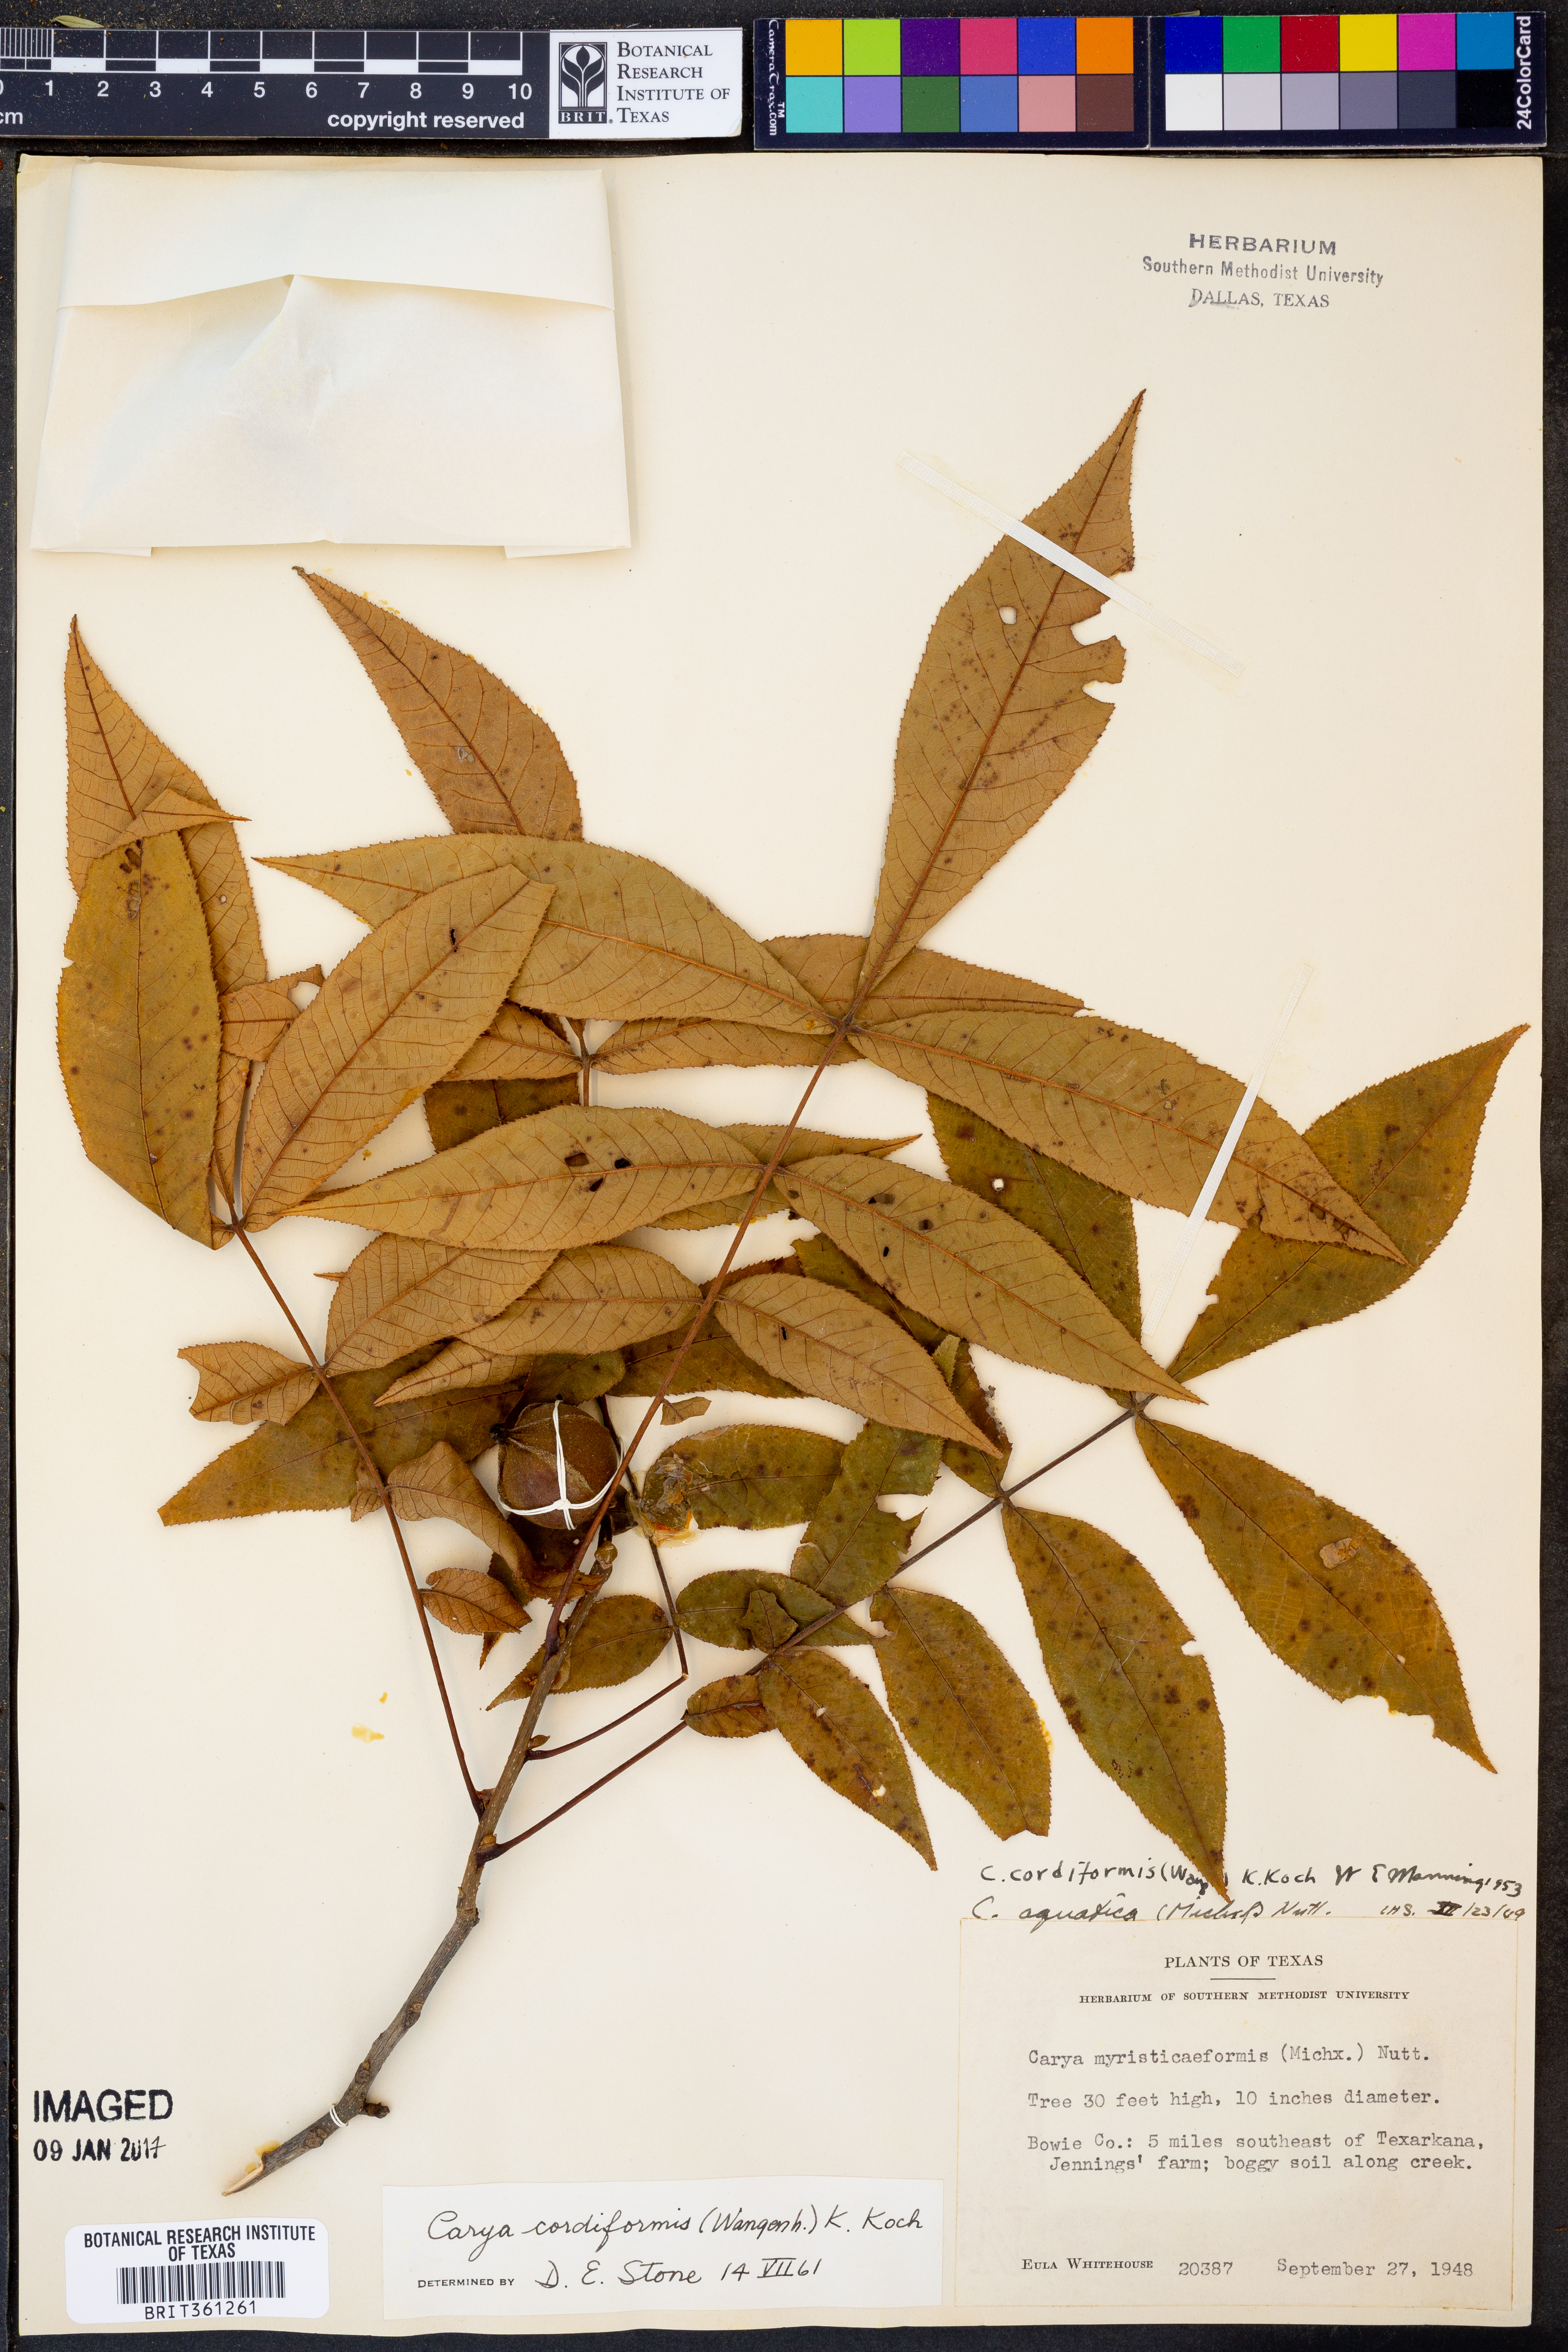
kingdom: Plantae
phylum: Tracheophyta
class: Magnoliopsida
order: Fagales
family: Juglandaceae
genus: Carya
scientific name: Carya cordiformis
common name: Bitternut hickory
